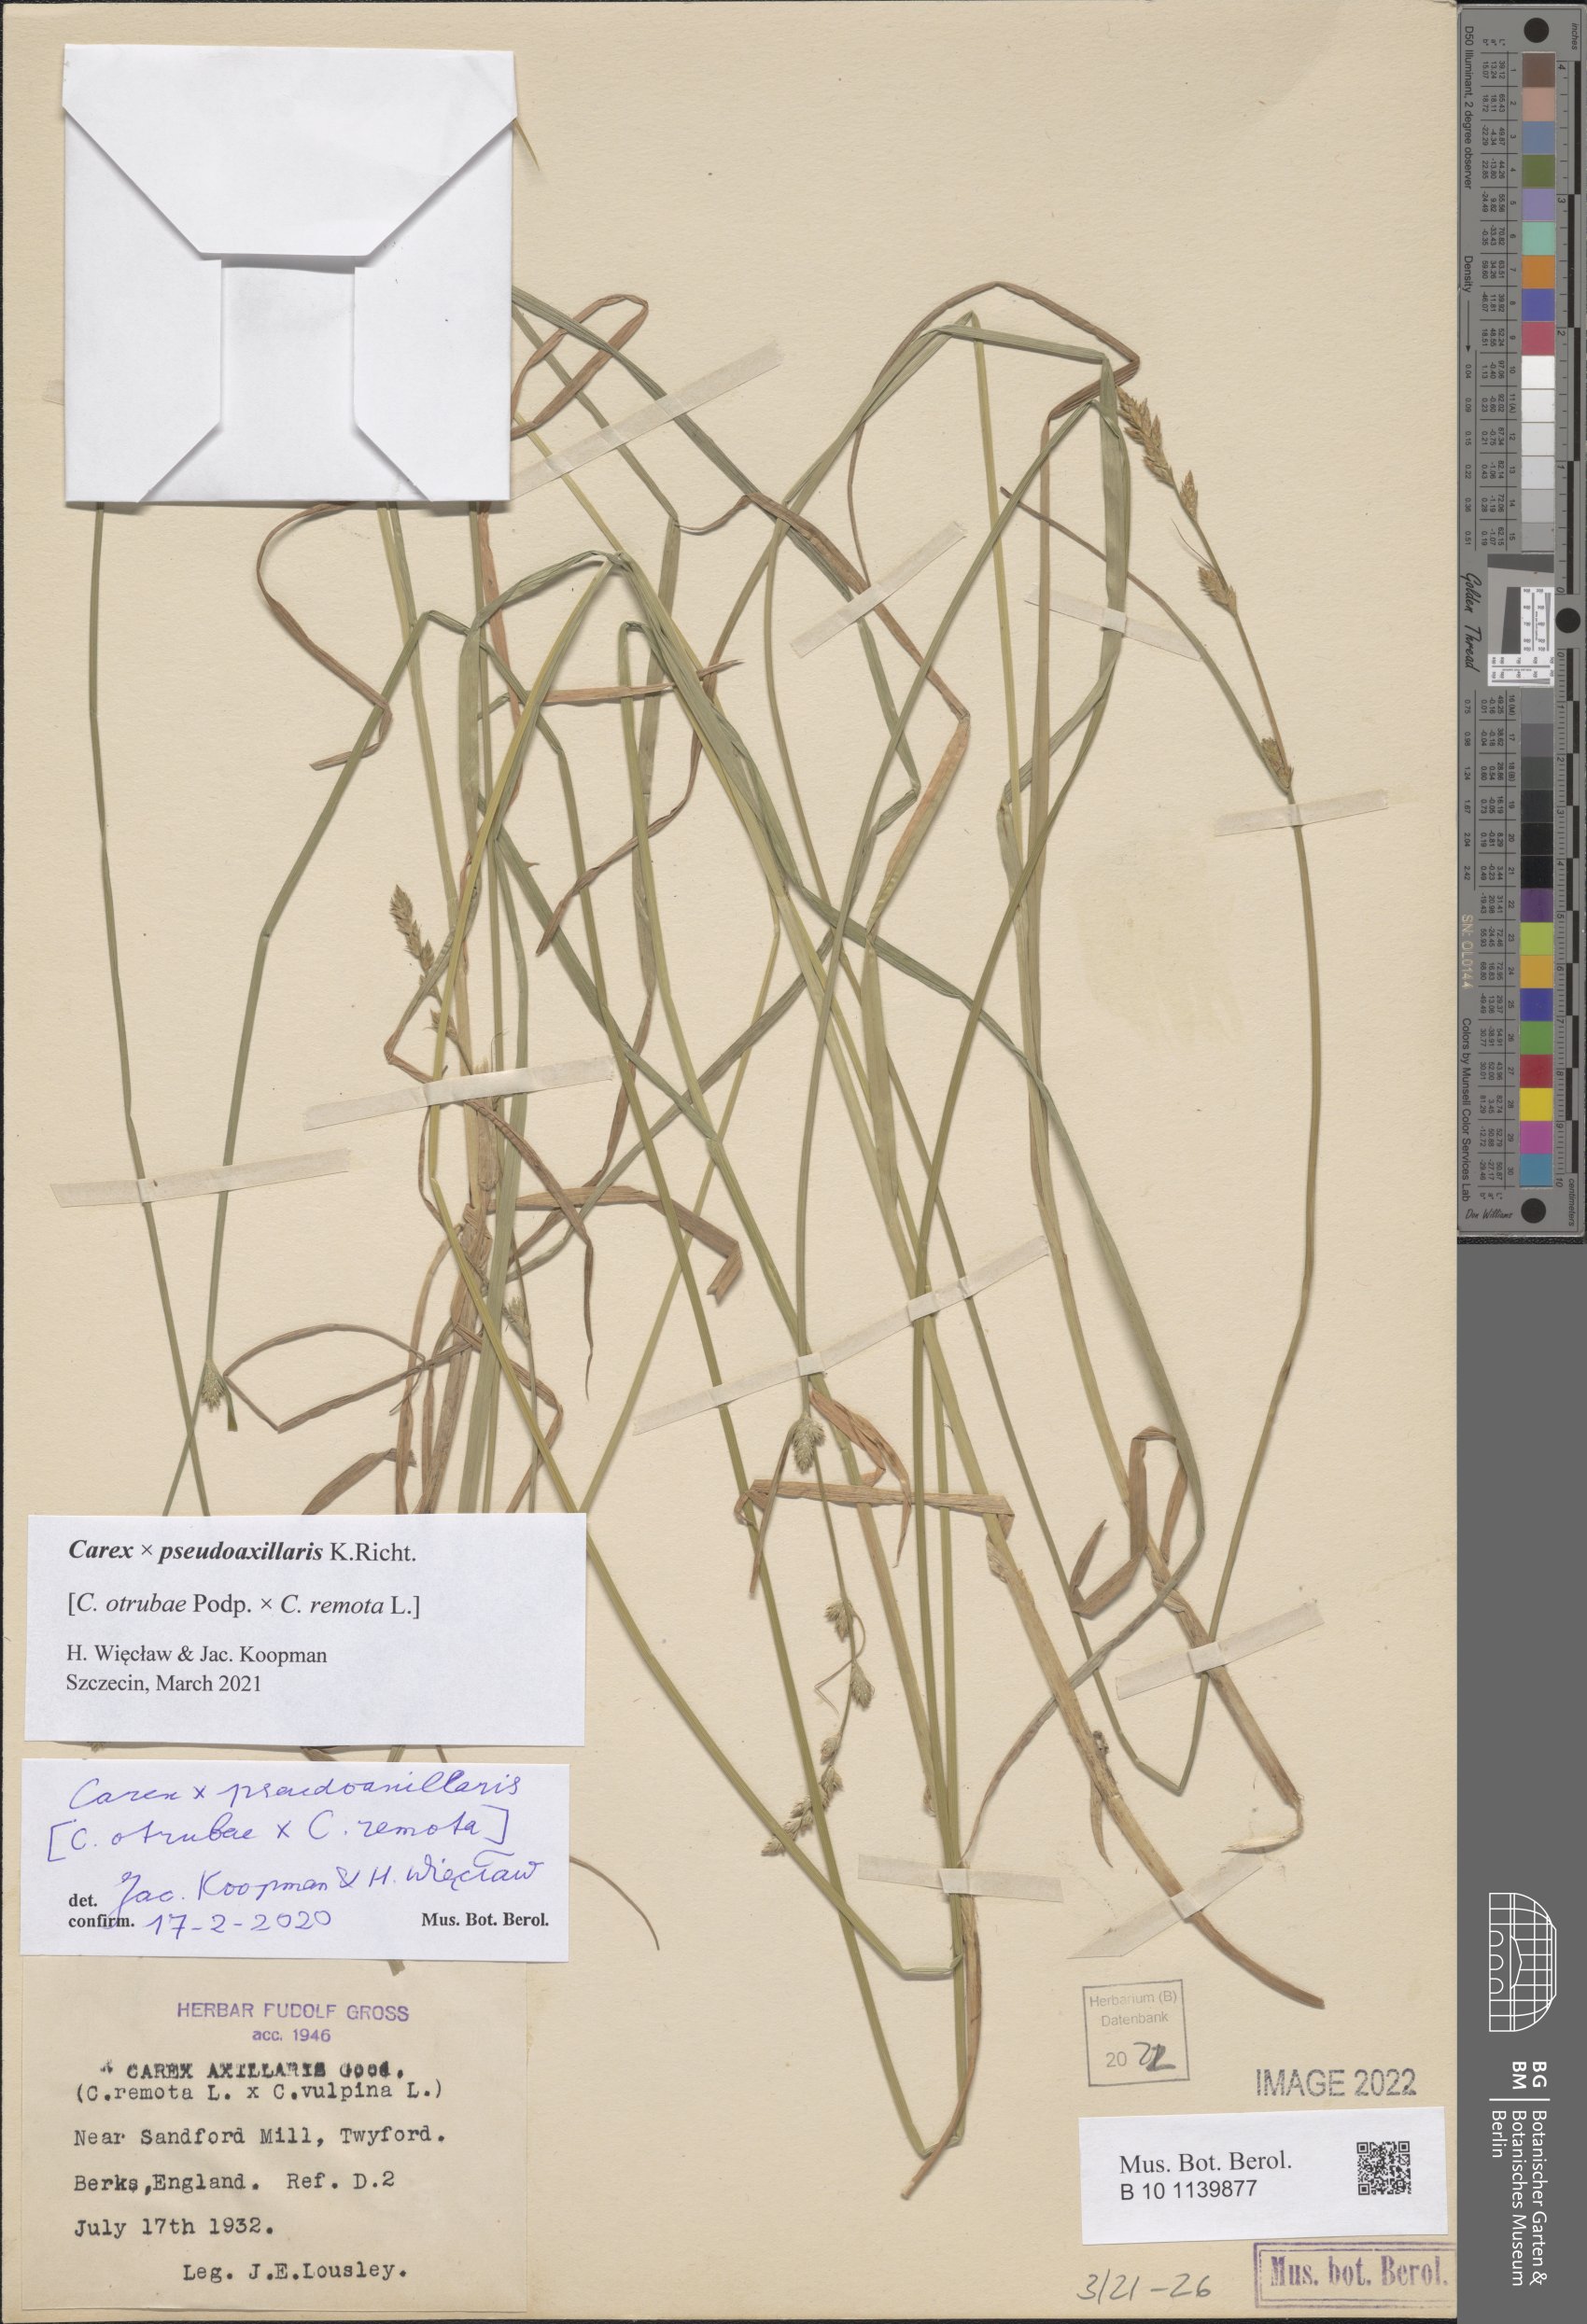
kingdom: Plantae
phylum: Tracheophyta
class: Liliopsida
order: Poales
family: Cyperaceae
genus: Carex
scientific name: Carex pseudoaxillaris
